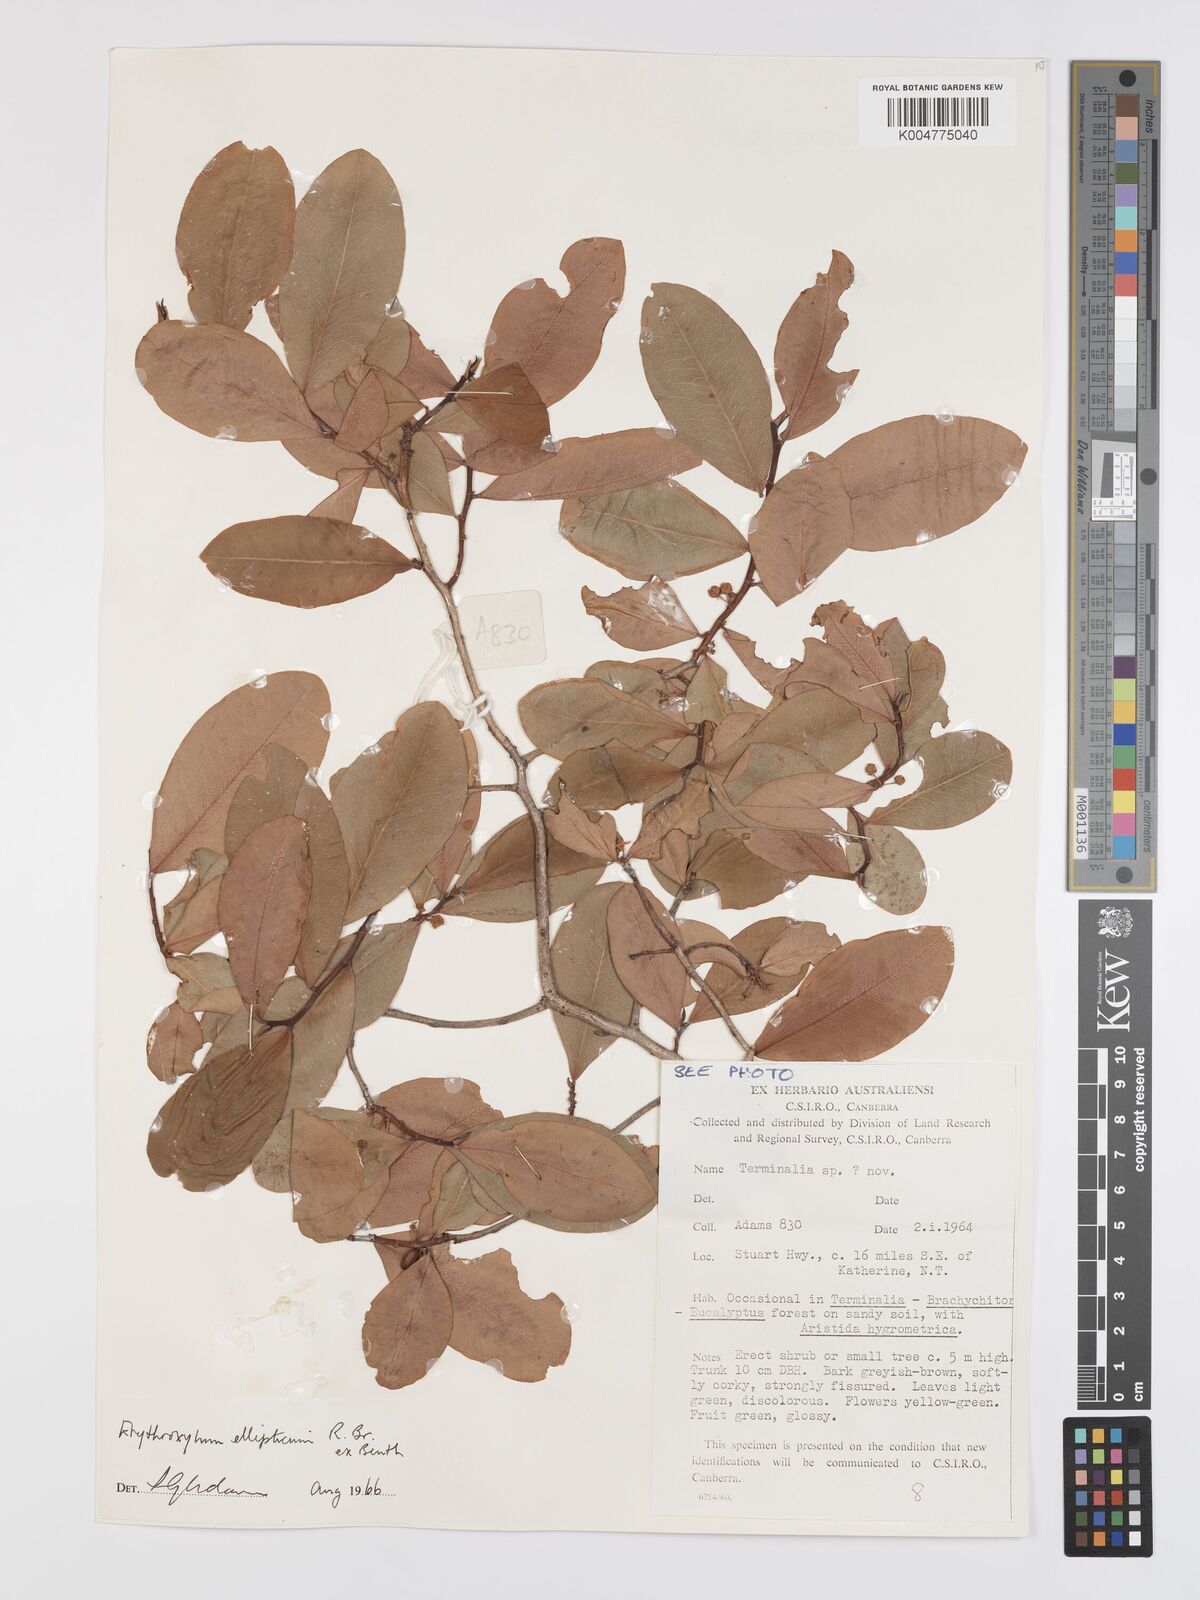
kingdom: Plantae
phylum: Tracheophyta
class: Magnoliopsida
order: Malpighiales
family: Erythroxylaceae
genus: Erythroxylum
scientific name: Erythroxylum
